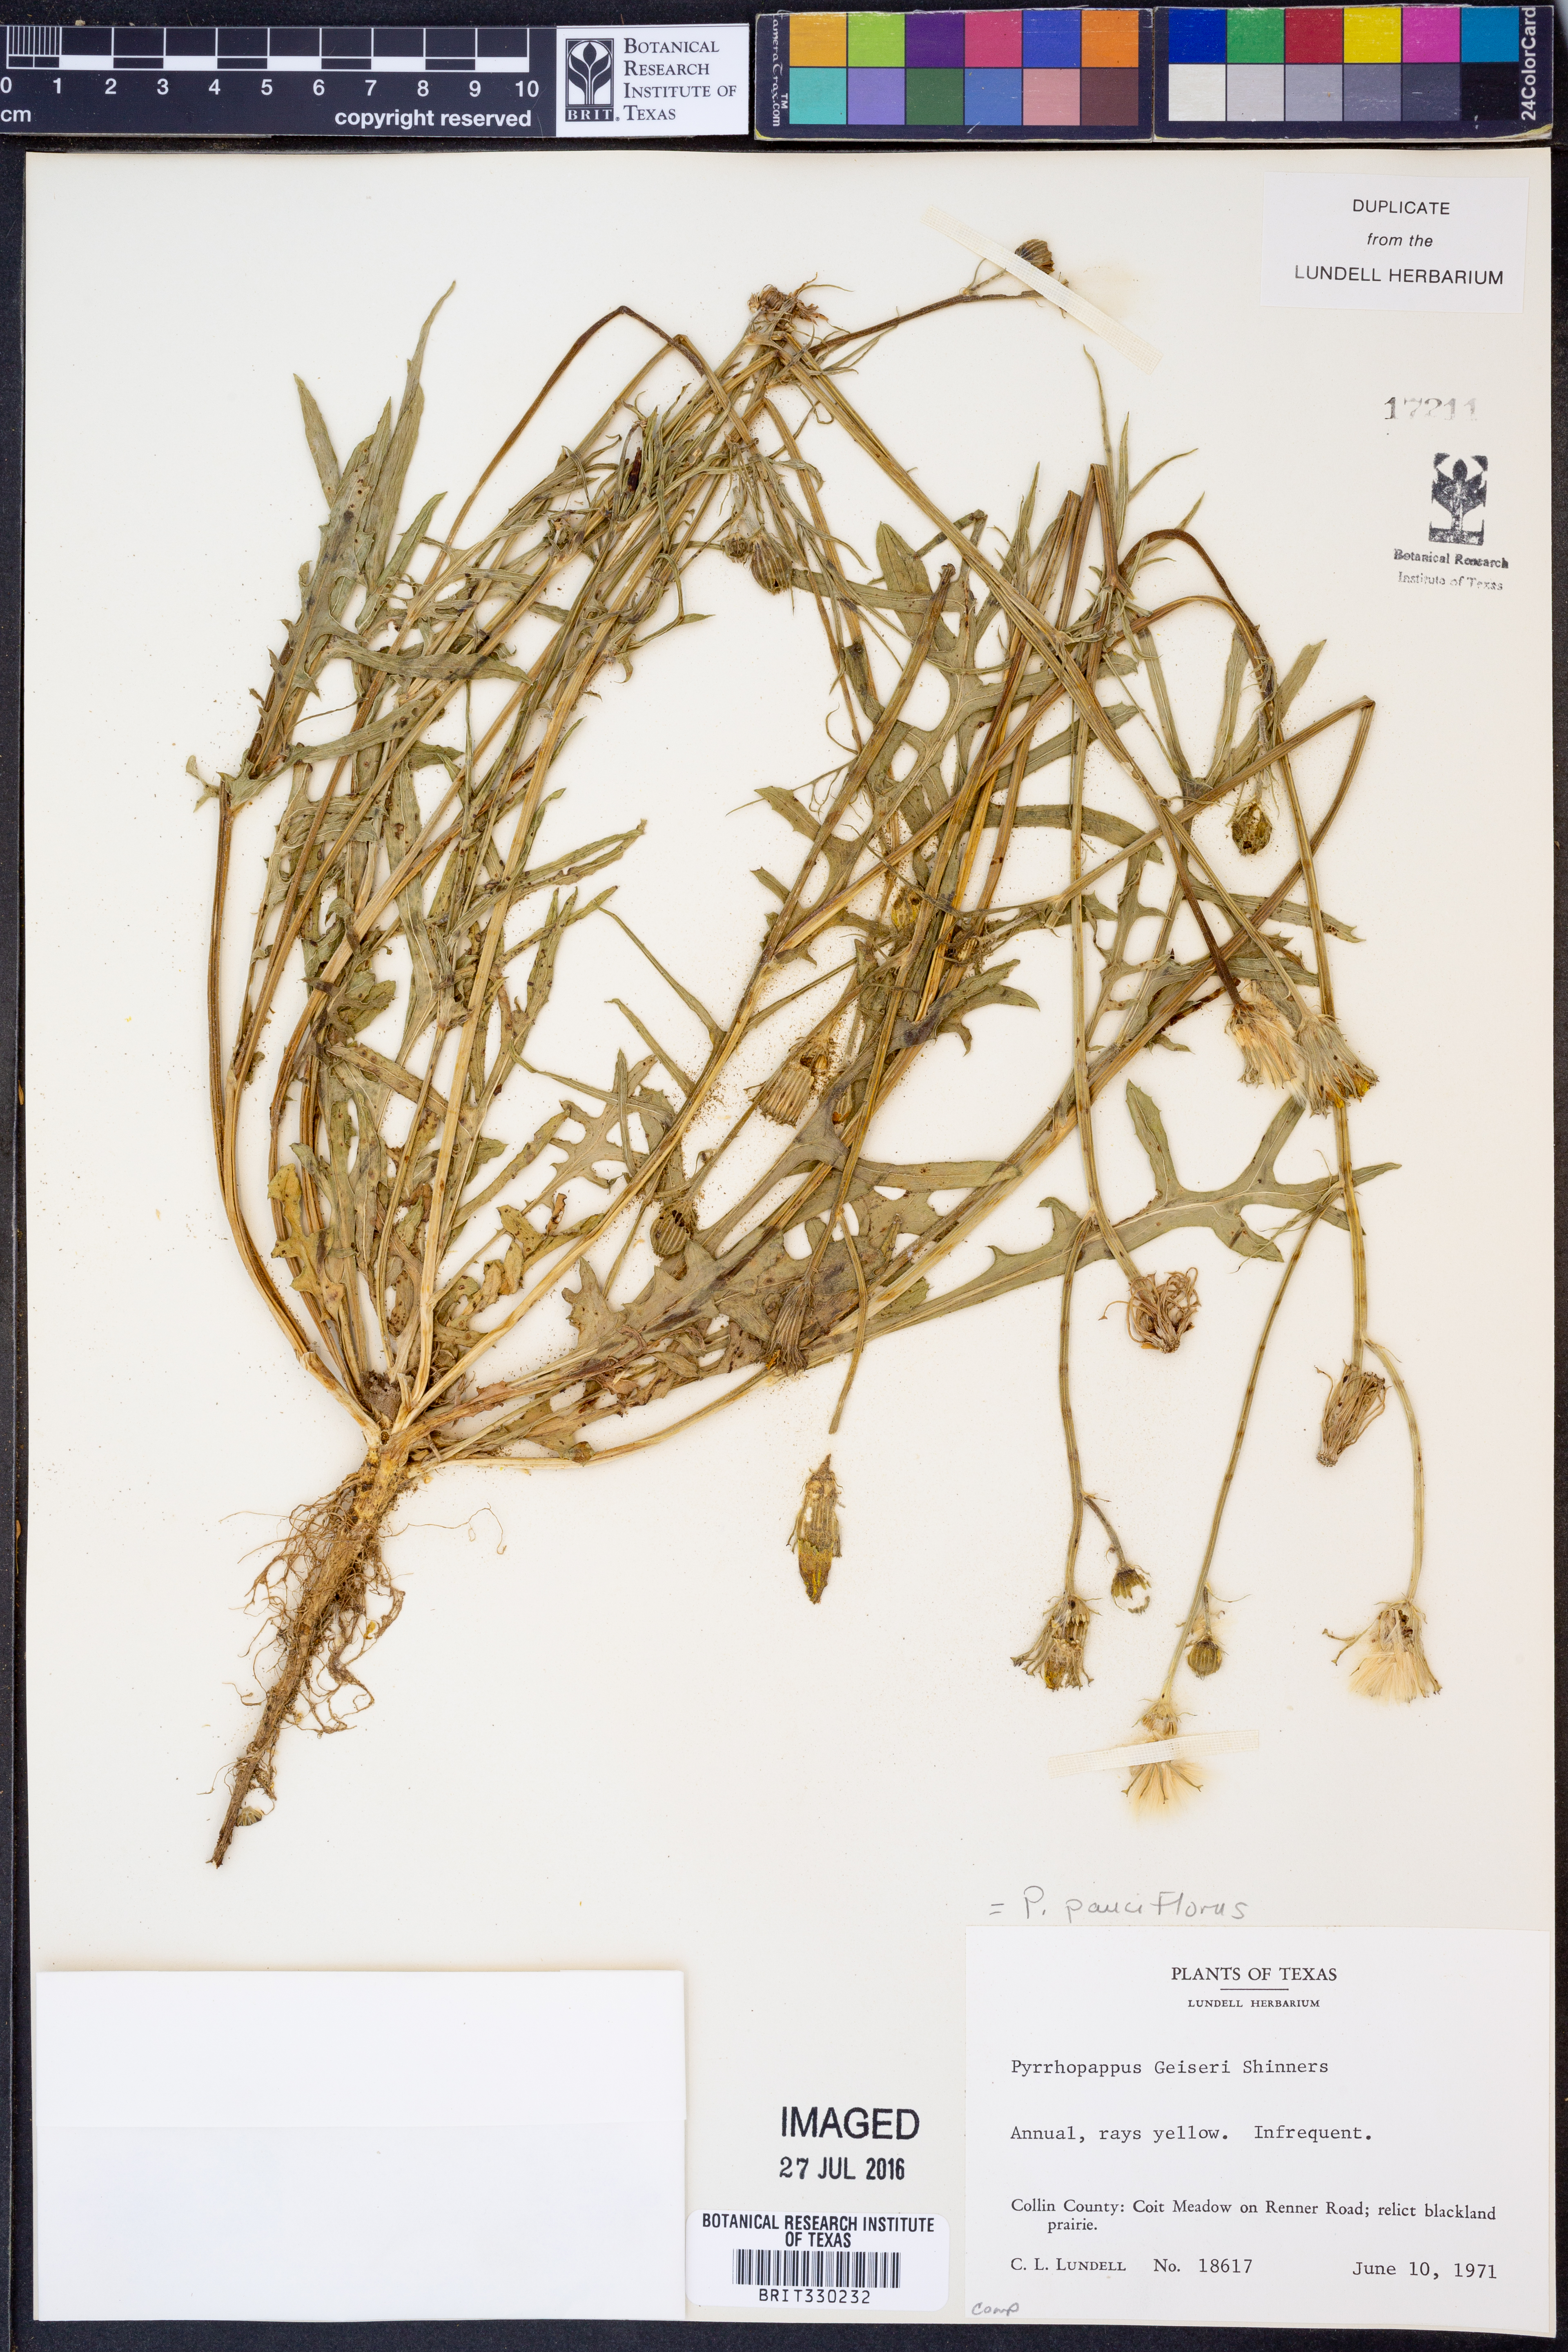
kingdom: Plantae
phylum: Tracheophyta
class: Magnoliopsida
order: Asterales
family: Asteraceae
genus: Pyrrhopappus
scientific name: Pyrrhopappus pauciflorus
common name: Texas false dandelion
